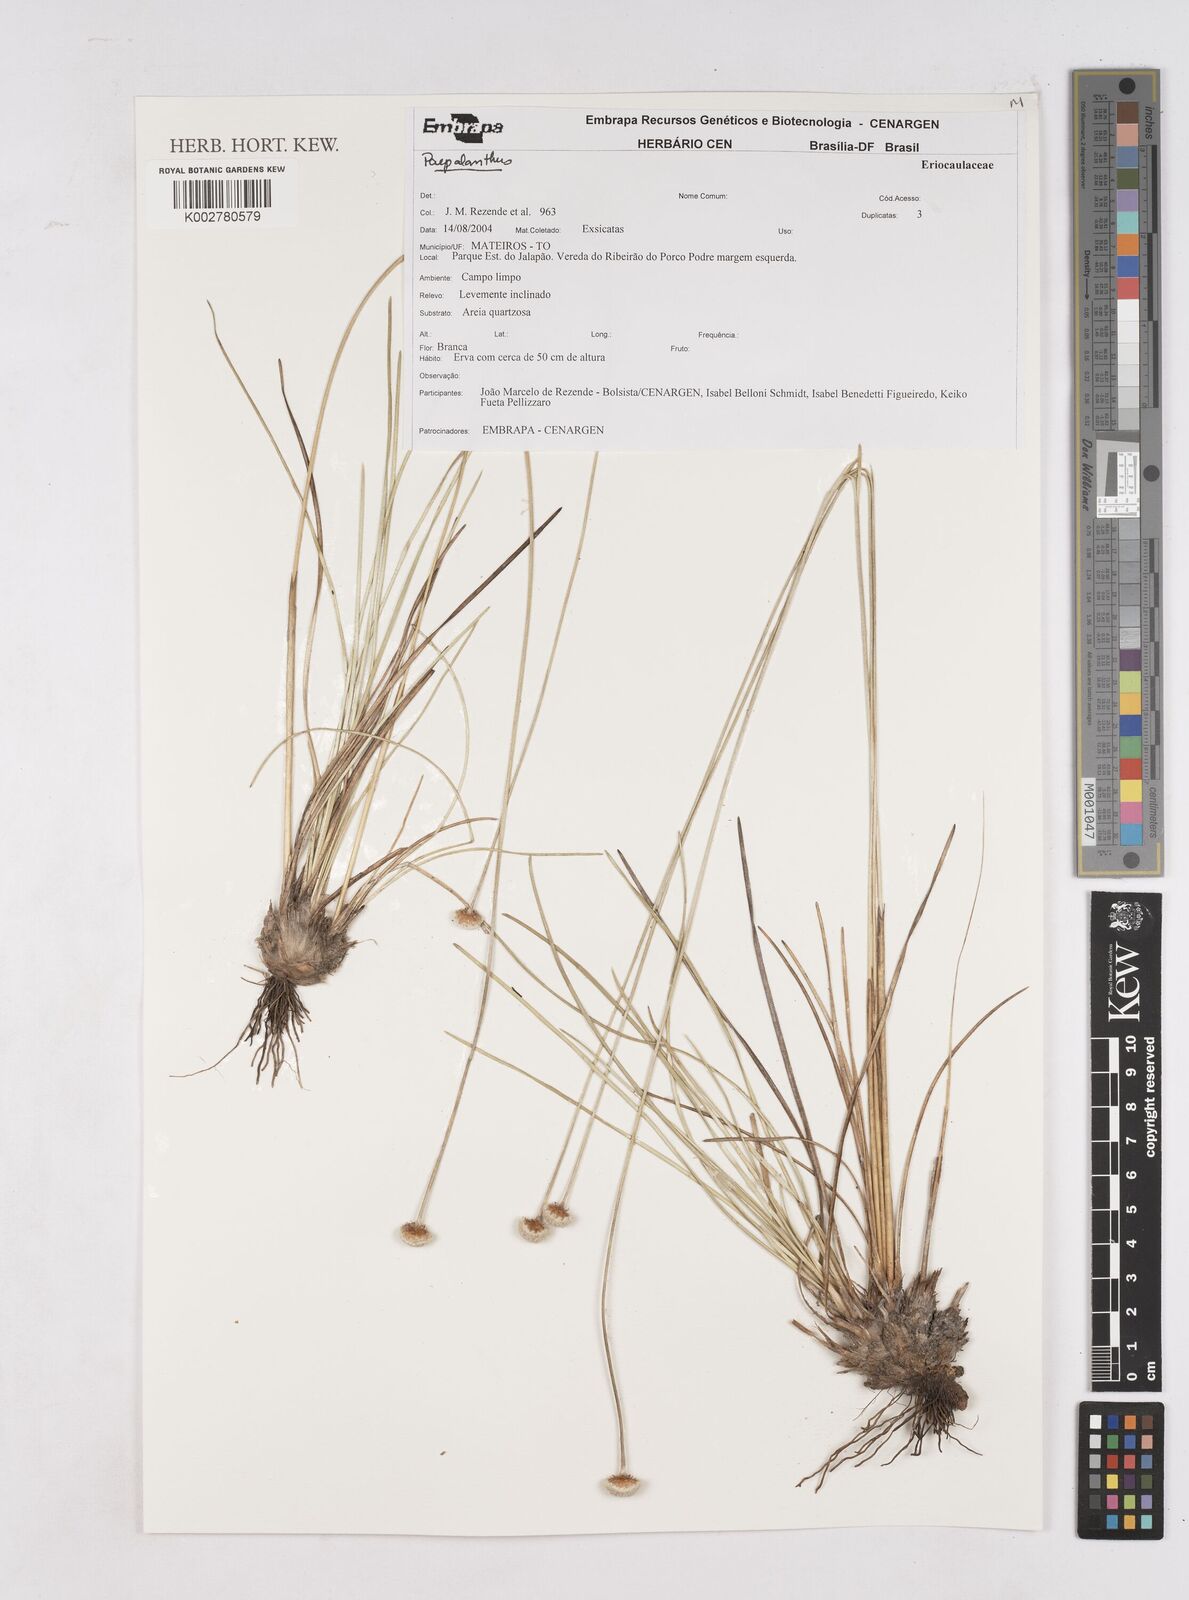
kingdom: Plantae
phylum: Tracheophyta
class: Liliopsida
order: Poales
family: Eriocaulaceae
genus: Paepalanthus
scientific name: Paepalanthus cipoensis
